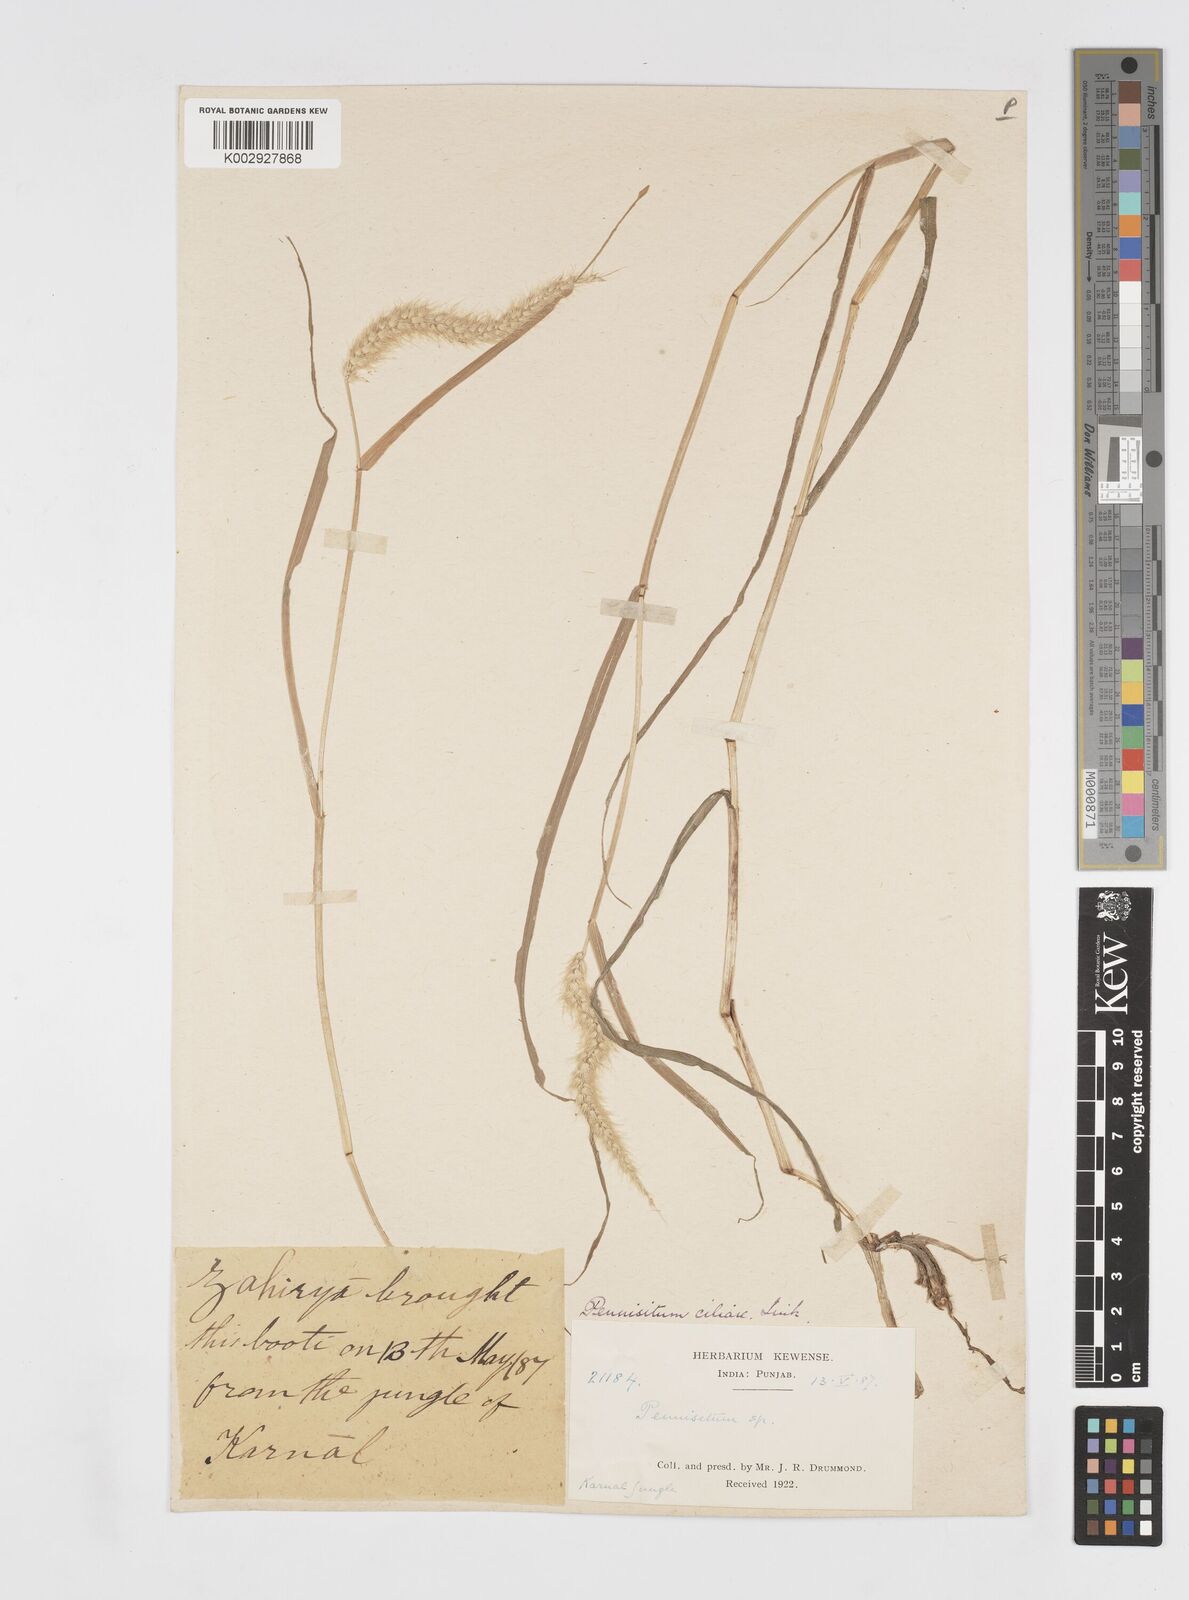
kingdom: Plantae
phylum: Tracheophyta
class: Liliopsida
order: Poales
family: Poaceae
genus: Cenchrus
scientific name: Cenchrus ciliaris
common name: Buffelgrass
